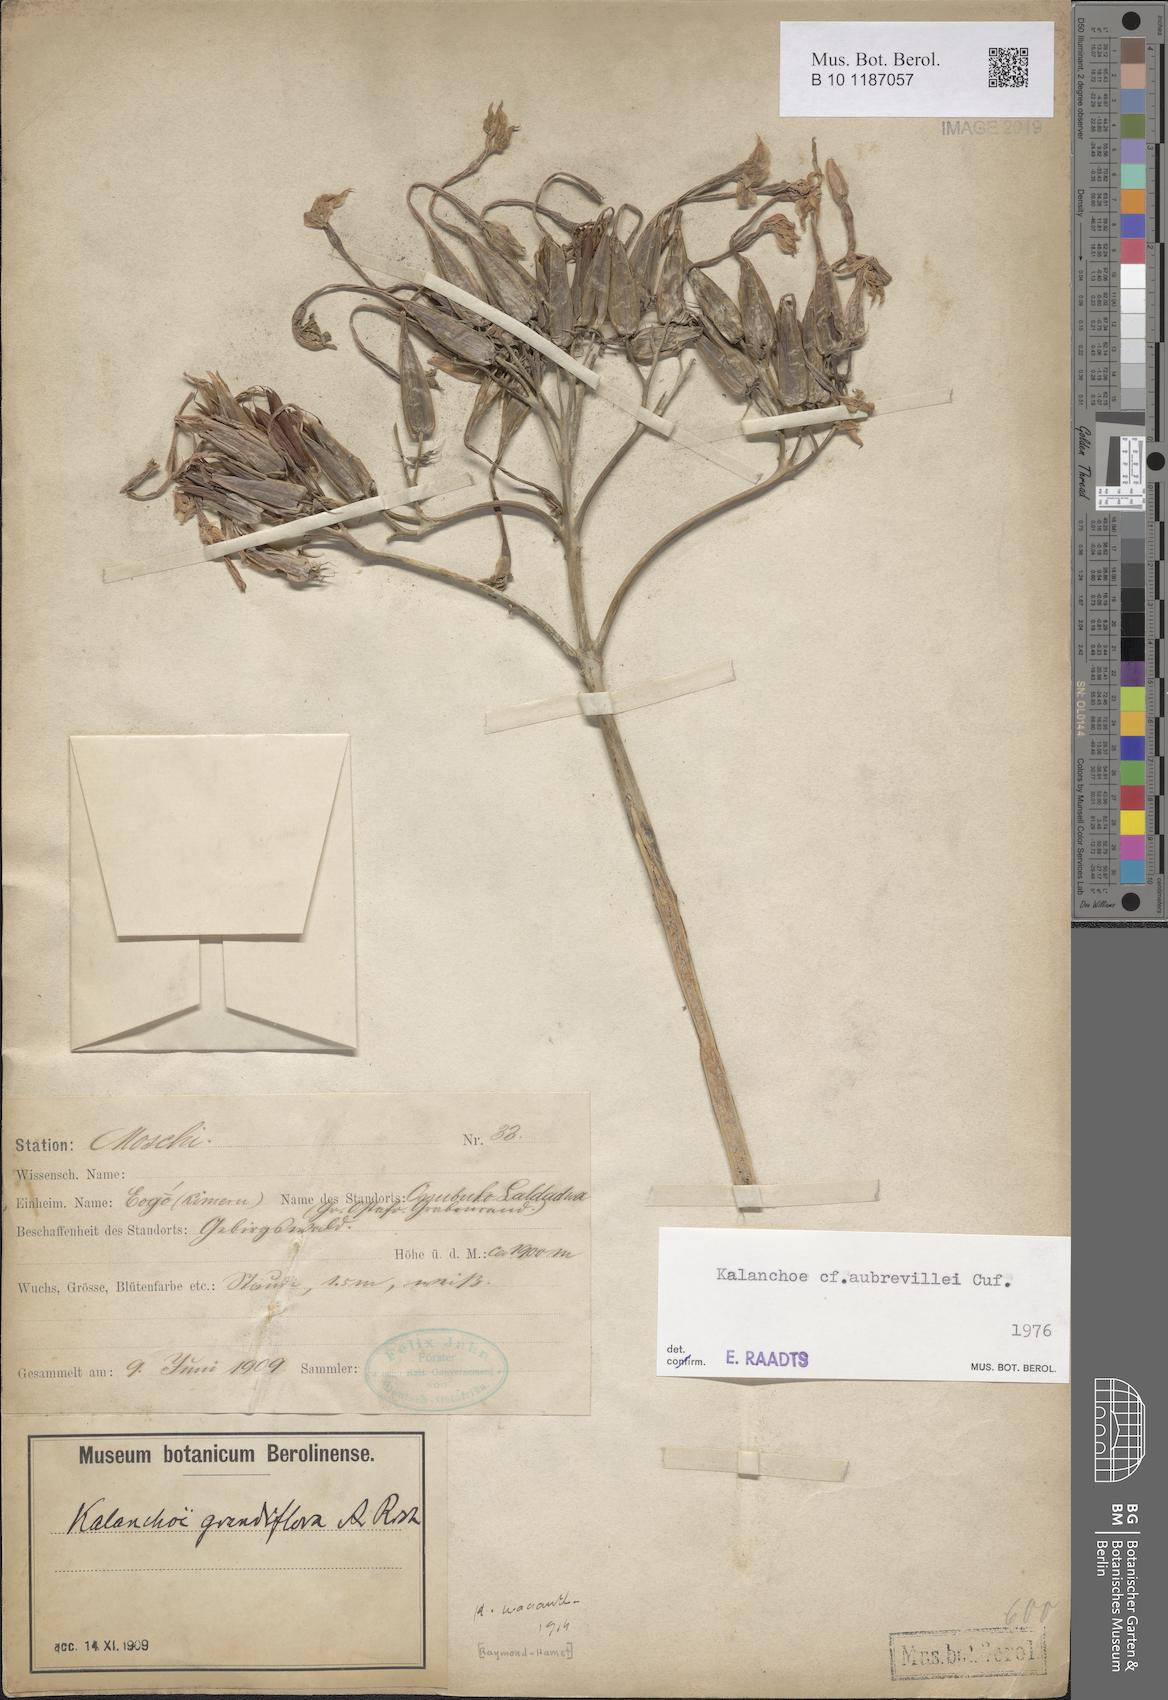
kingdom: Plantae
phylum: Tracheophyta
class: Magnoliopsida
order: Saxifragales
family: Crassulaceae
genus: Kalanchoe
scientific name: Kalanchoe aubrevillei
